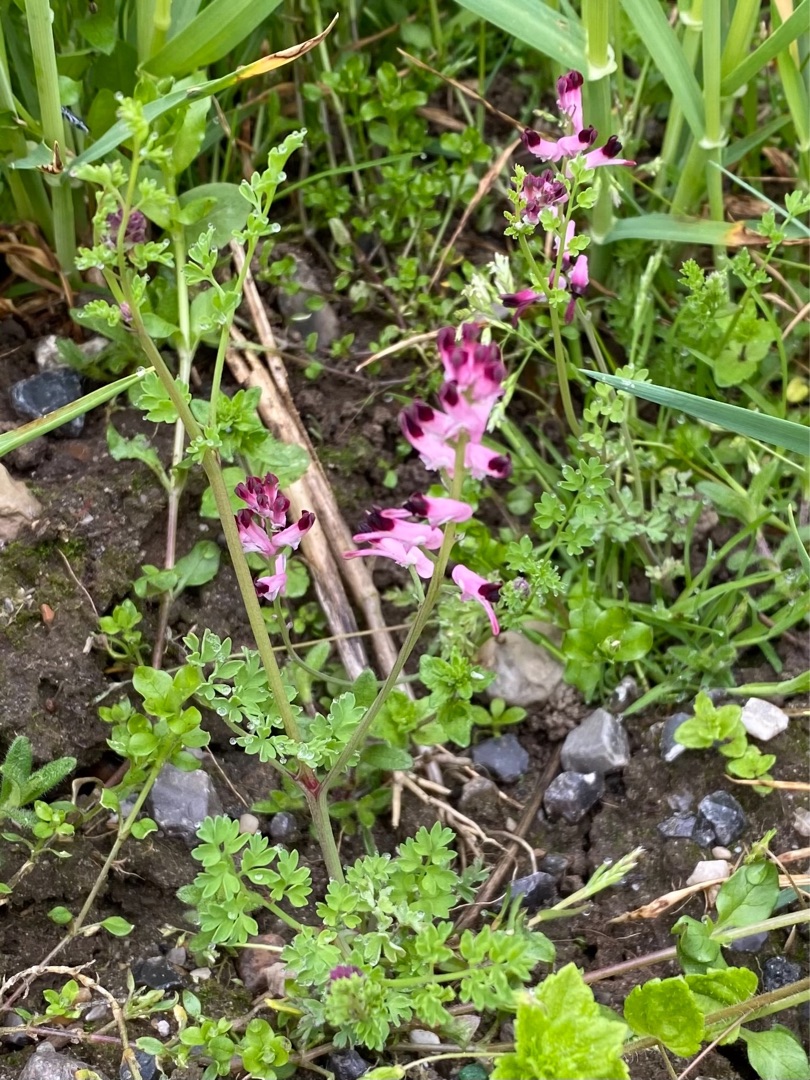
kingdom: Plantae
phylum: Tracheophyta
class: Magnoliopsida
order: Ranunculales
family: Papaveraceae
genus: Fumaria
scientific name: Fumaria officinalis
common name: Læge-jordrøg
